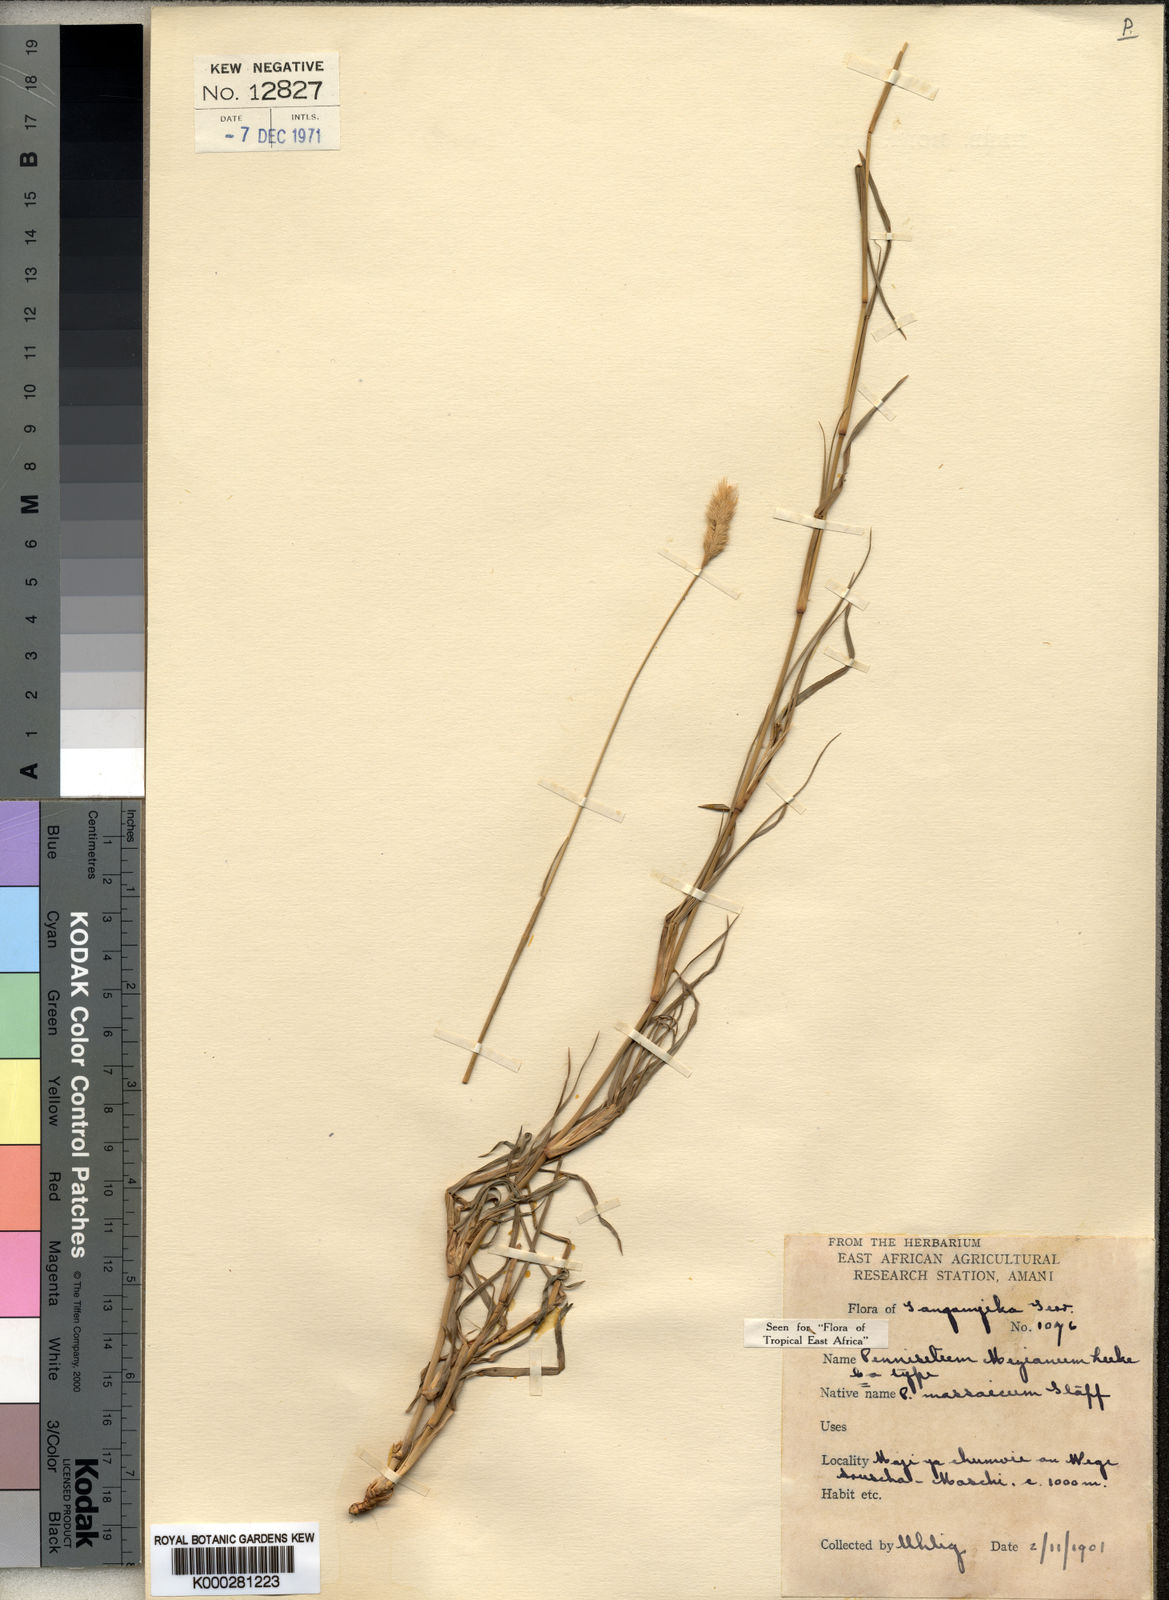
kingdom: Plantae
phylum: Tracheophyta
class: Liliopsida
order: Poales
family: Poaceae
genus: Cenchrus
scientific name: Cenchrus mezianus
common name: Bamboo grass
